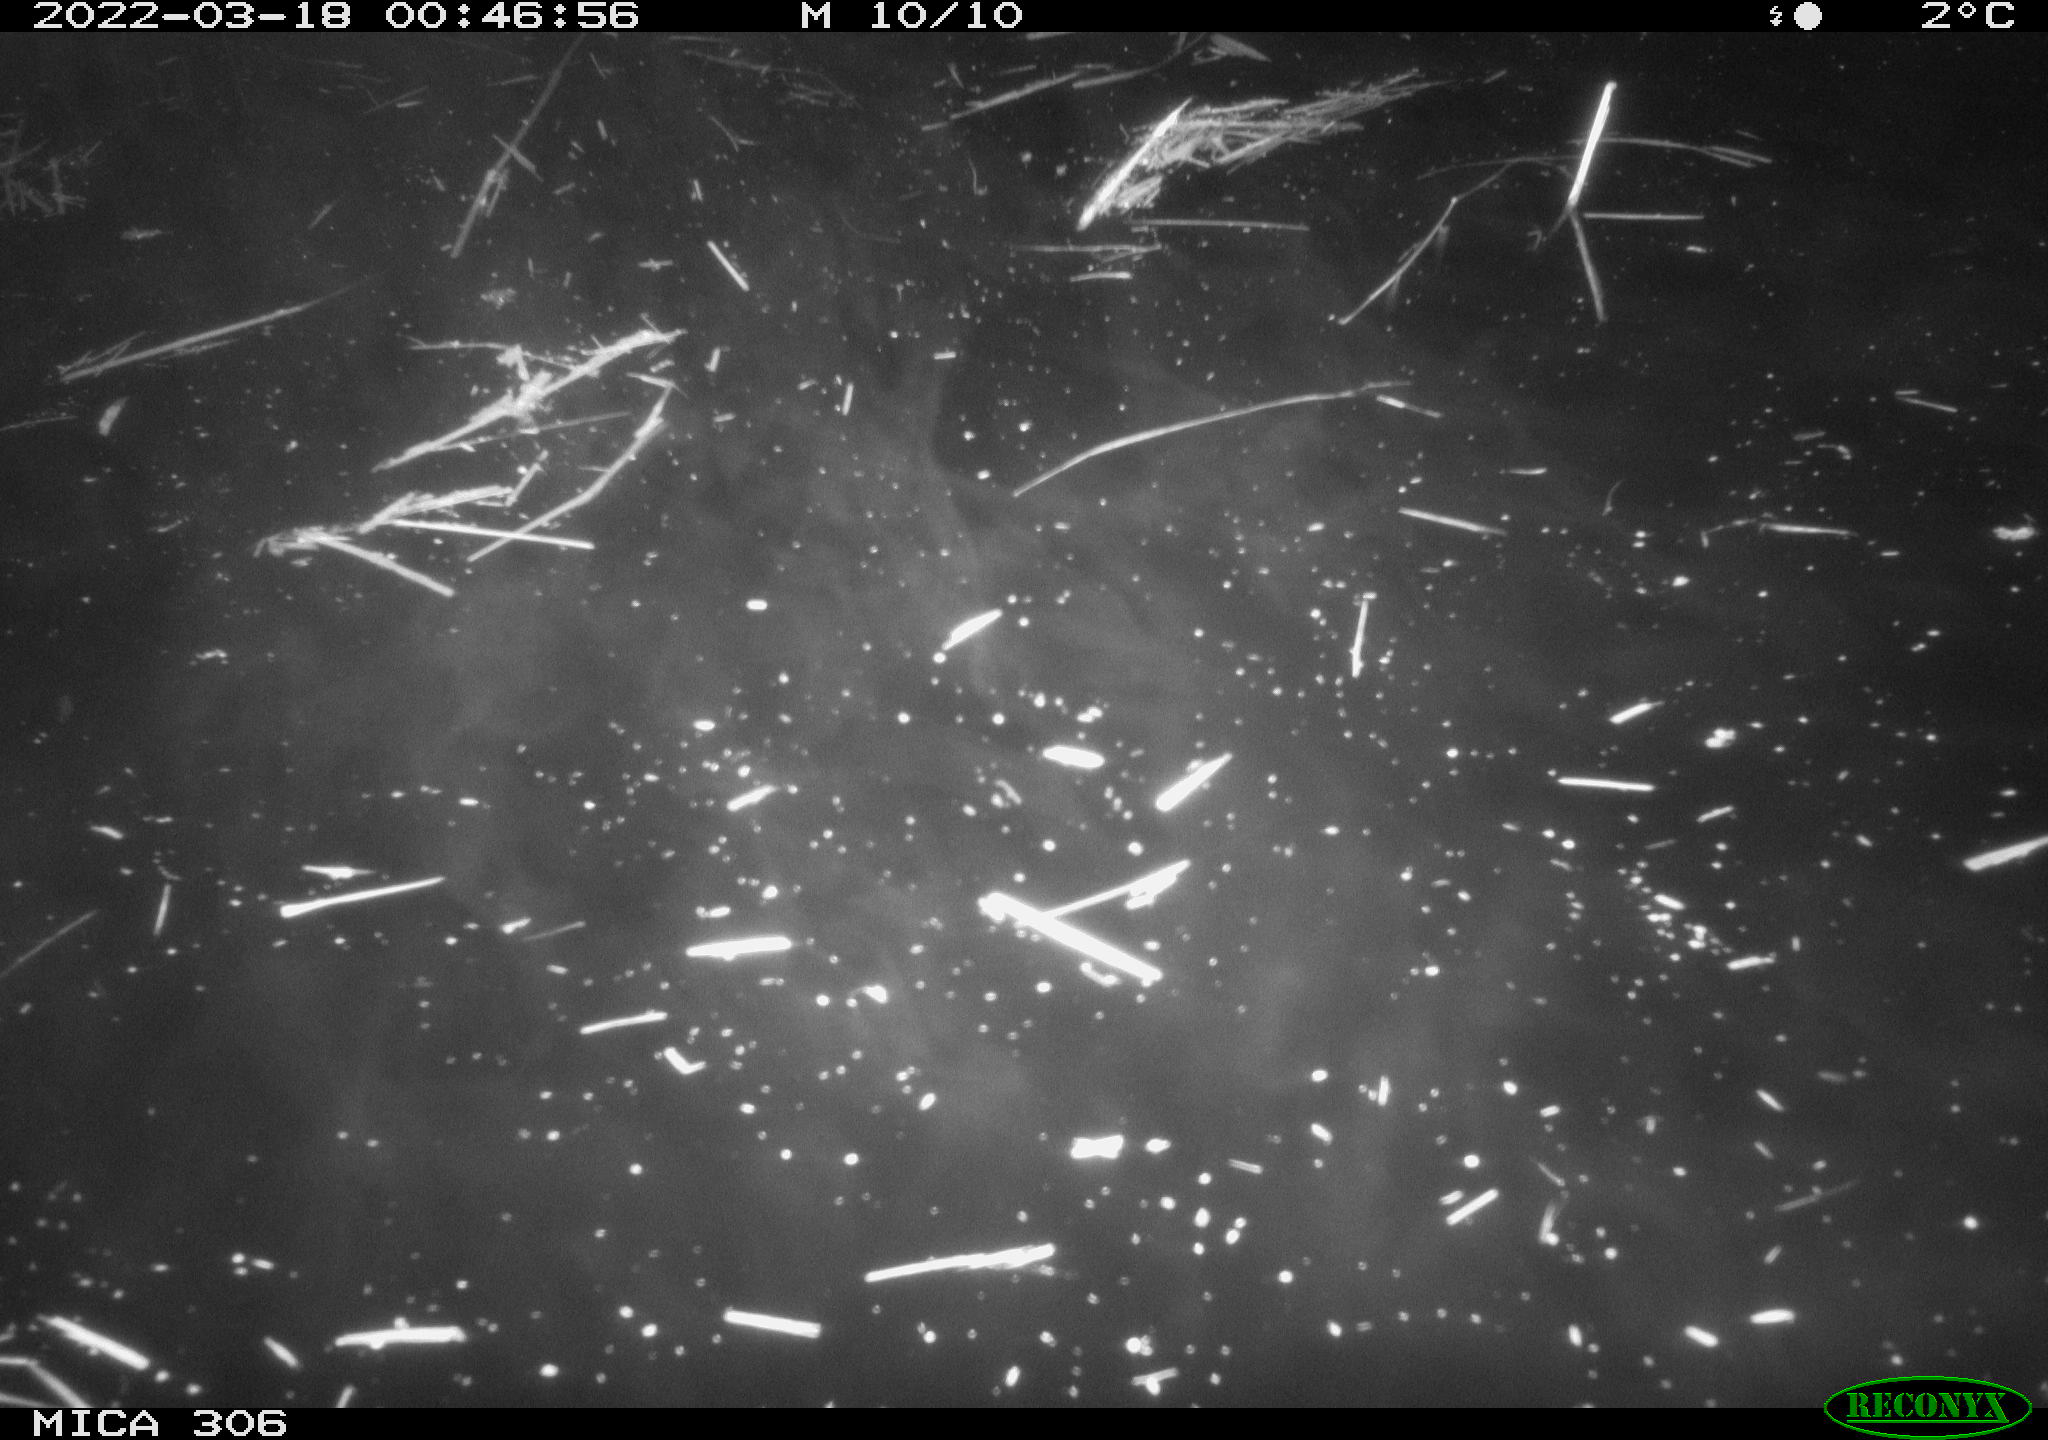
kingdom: Animalia
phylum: Chordata
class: Aves
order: Anseriformes
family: Anatidae
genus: Anas
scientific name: Anas platyrhynchos
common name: Mallard
